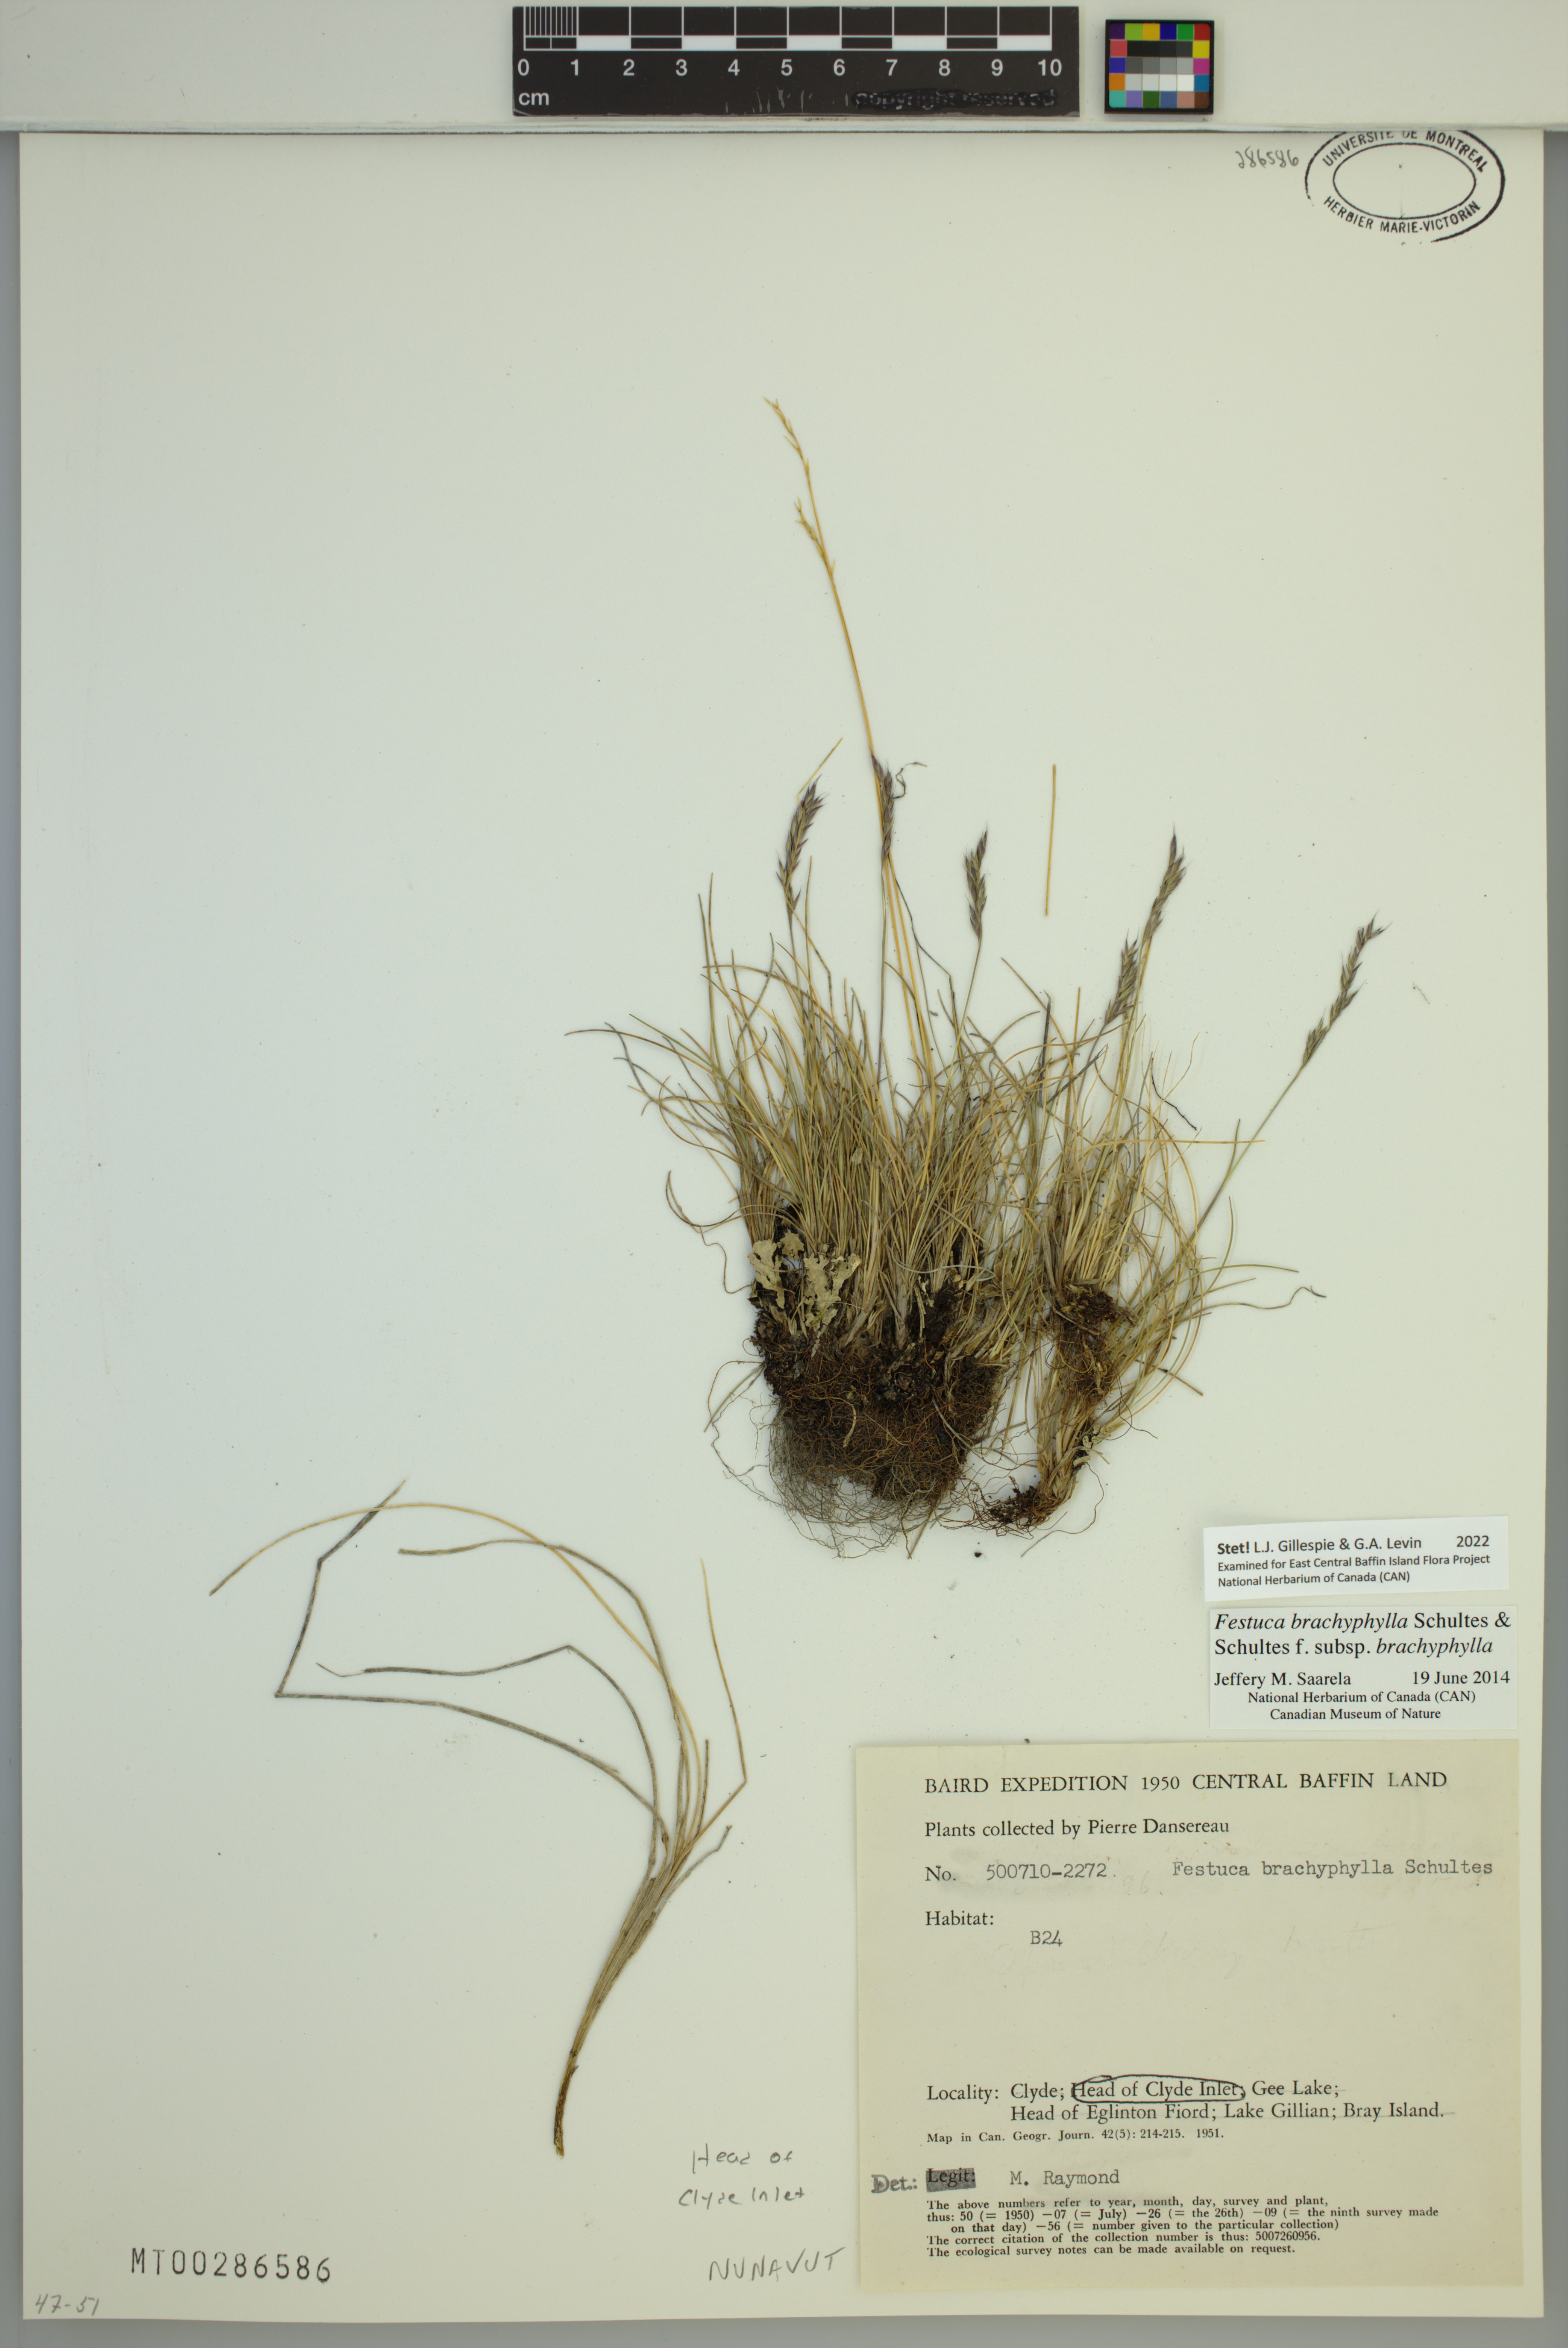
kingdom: Plantae
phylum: Tracheophyta
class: Liliopsida
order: Poales
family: Poaceae
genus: Festuca
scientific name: Festuca brachyphylla
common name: Alpine fescue
